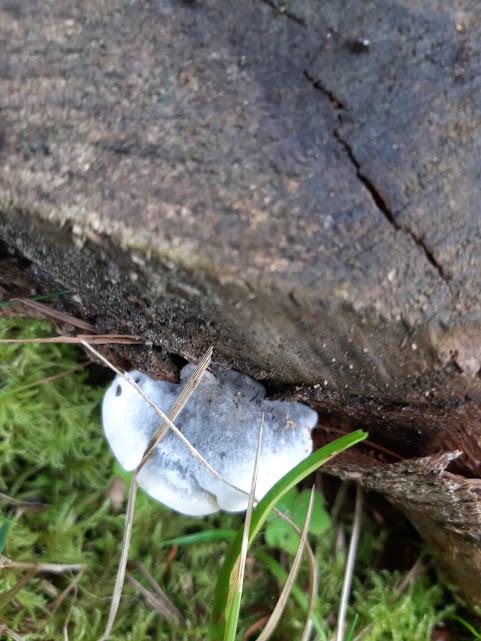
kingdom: Fungi
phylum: Basidiomycota
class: Agaricomycetes
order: Polyporales
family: Polyporaceae
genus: Cyanosporus
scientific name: Cyanosporus caesius
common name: blålig kødporesvamp
